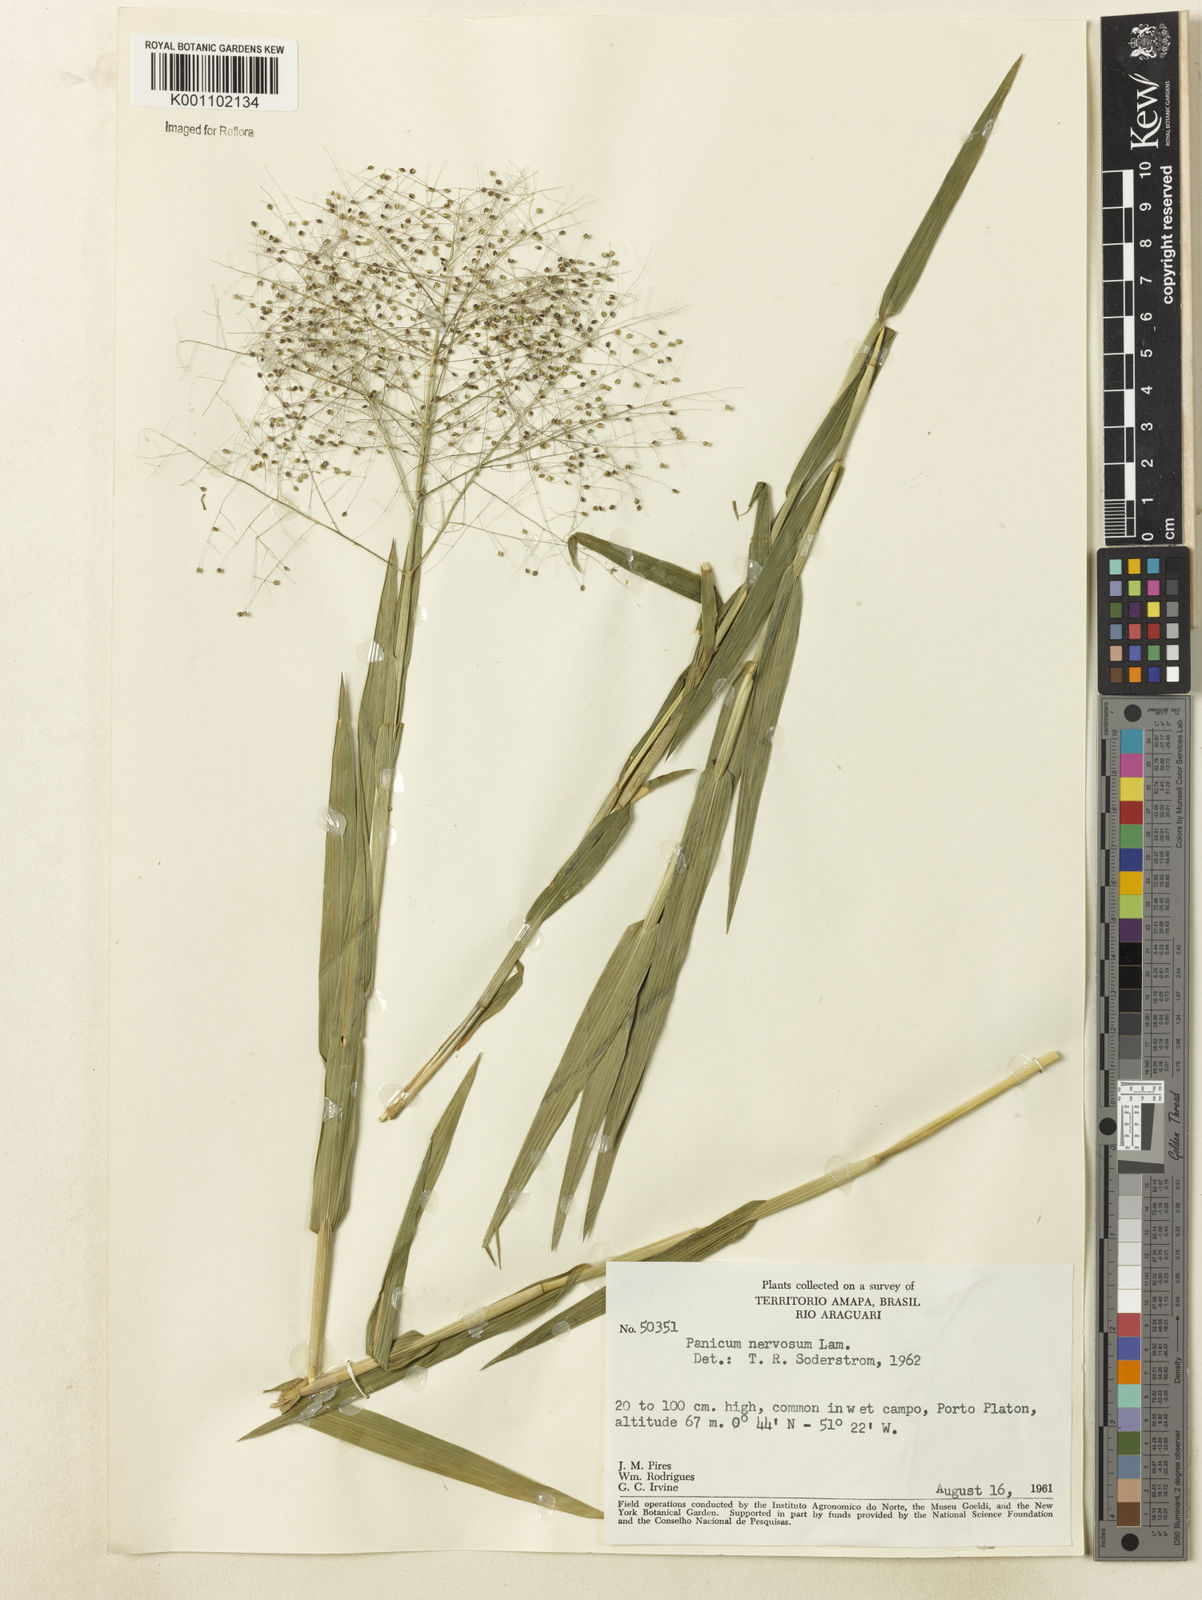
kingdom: Plantae
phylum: Tracheophyta
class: Liliopsida
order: Poales
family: Poaceae
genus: Trichanthecium
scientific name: Trichanthecium nervosum
